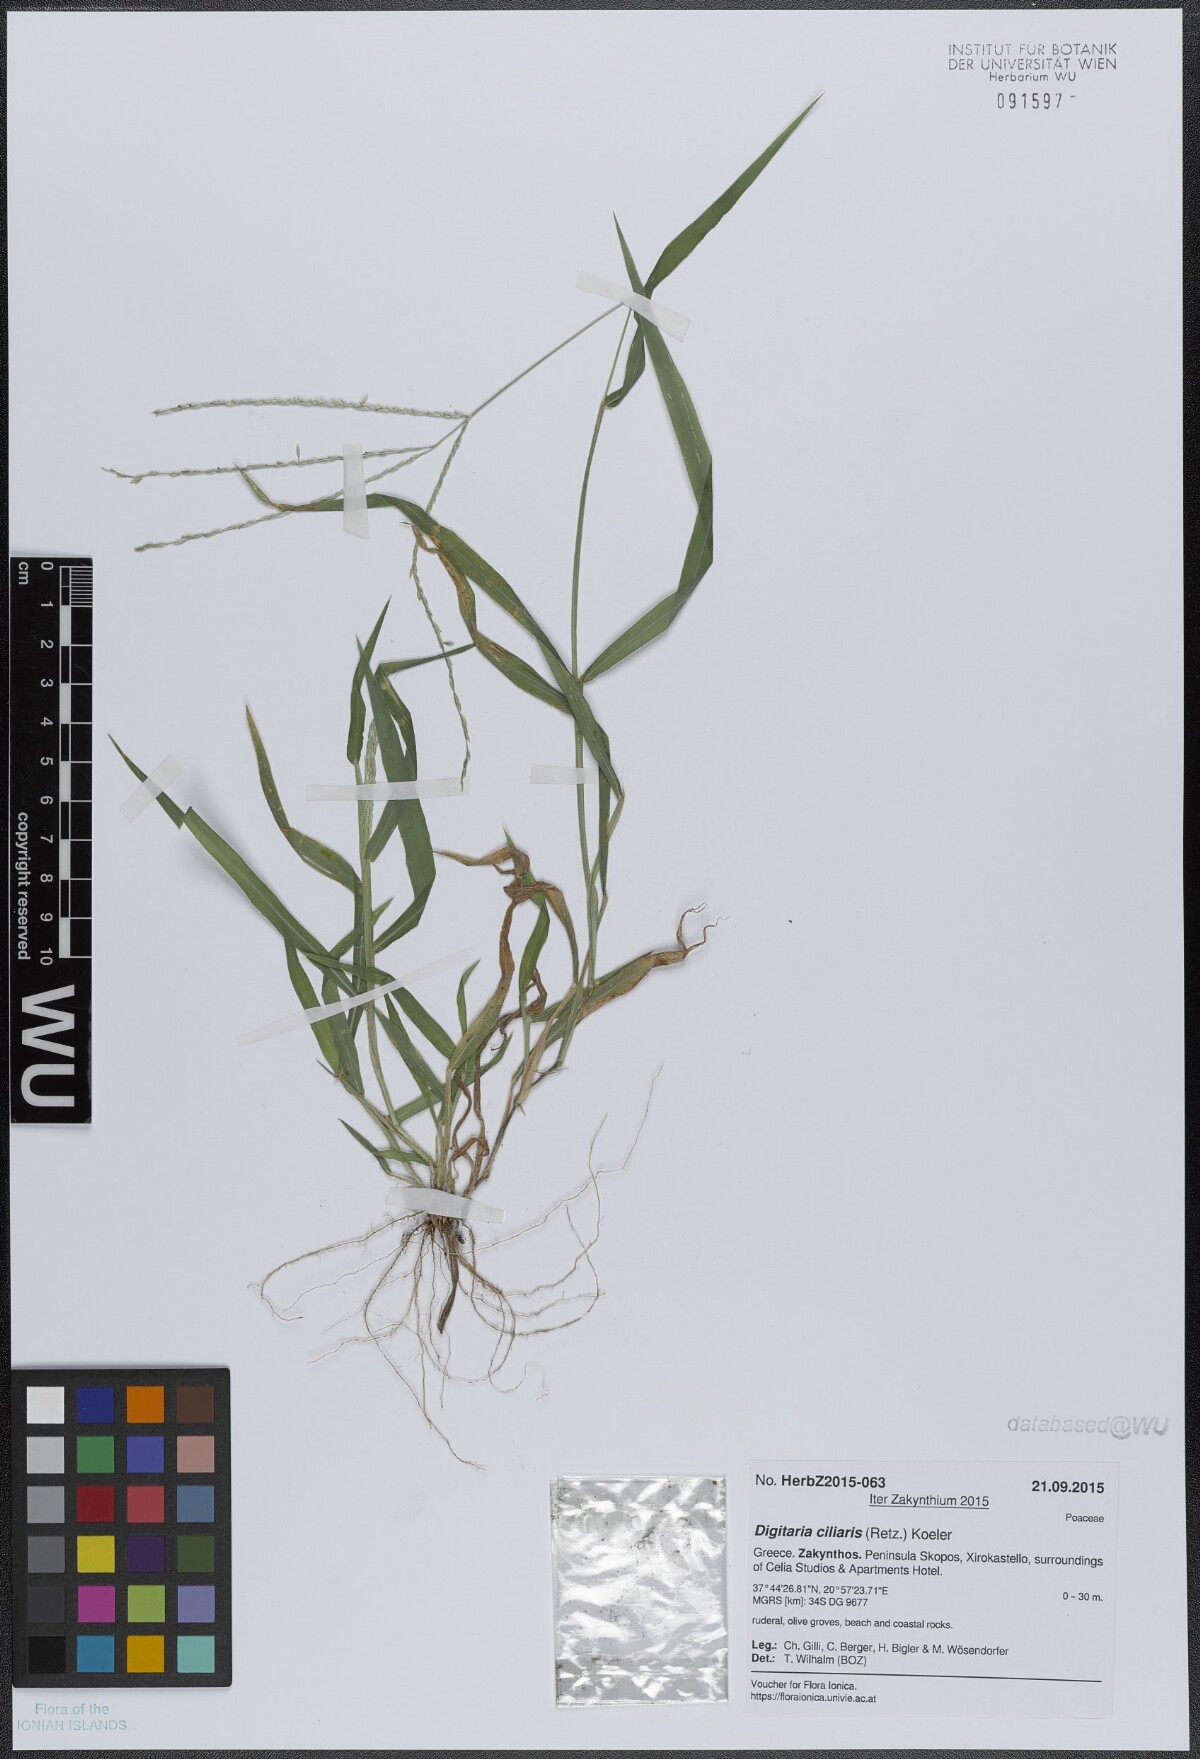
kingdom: Plantae
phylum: Tracheophyta
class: Liliopsida
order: Poales
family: Poaceae
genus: Digitaria
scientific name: Digitaria ciliaris
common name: Tropical finger-grass
